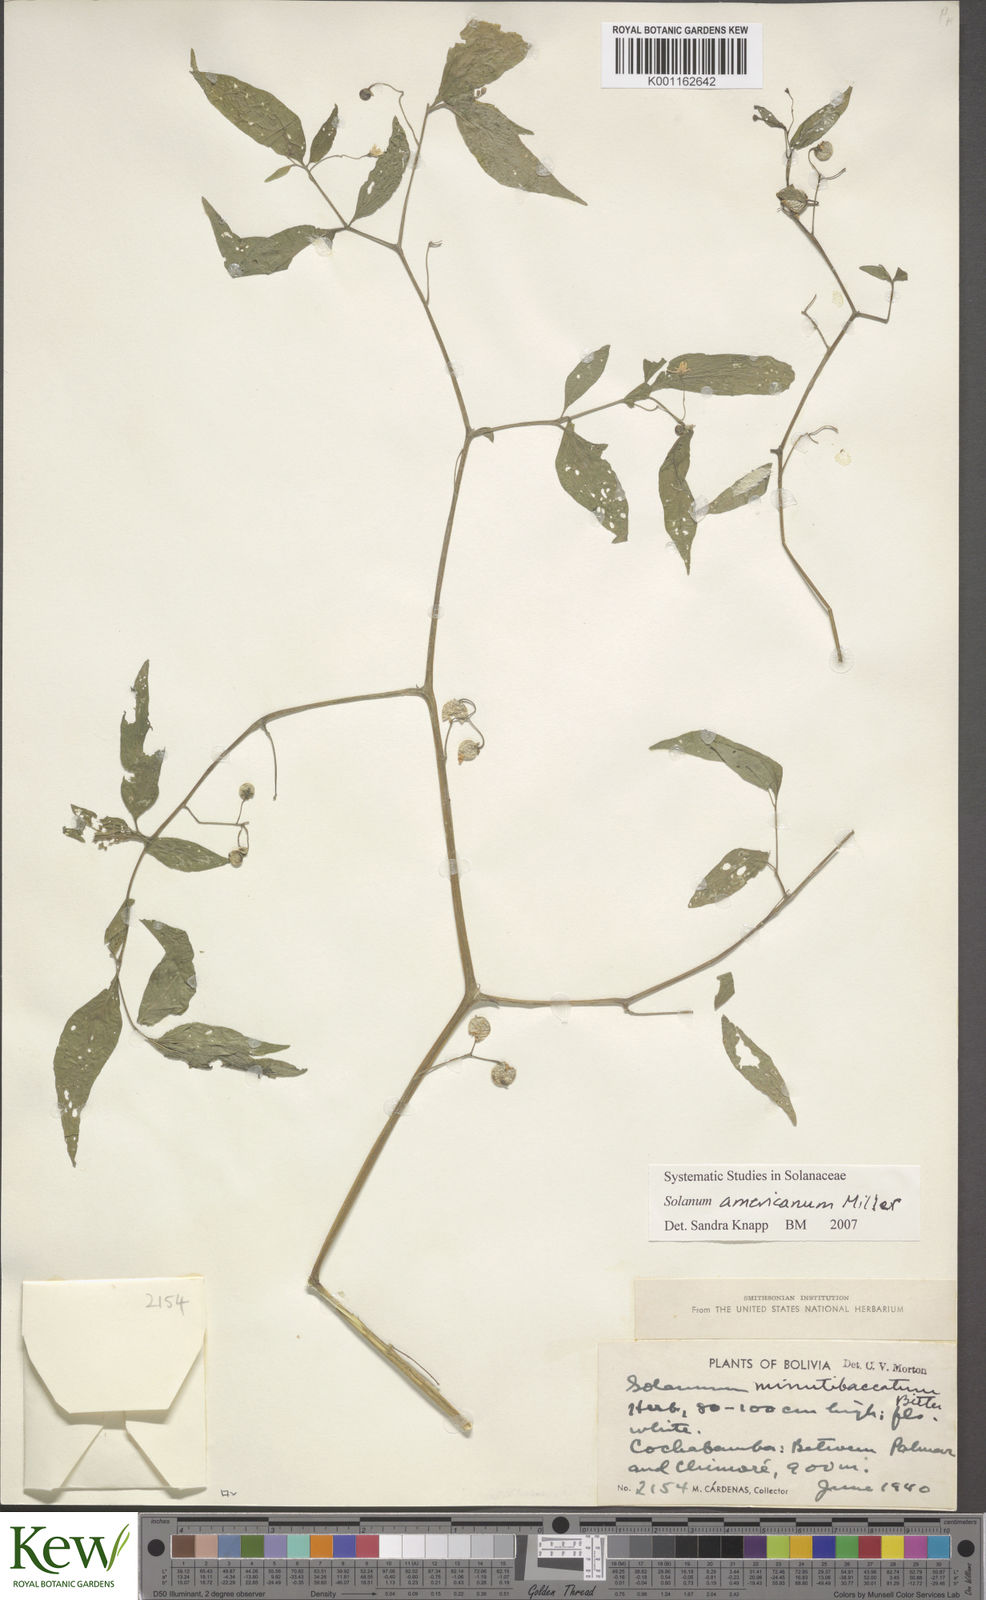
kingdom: Plantae
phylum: Tracheophyta
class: Magnoliopsida
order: Solanales
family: Solanaceae
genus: Solanum
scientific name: Solanum americanum
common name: American black nightshade
